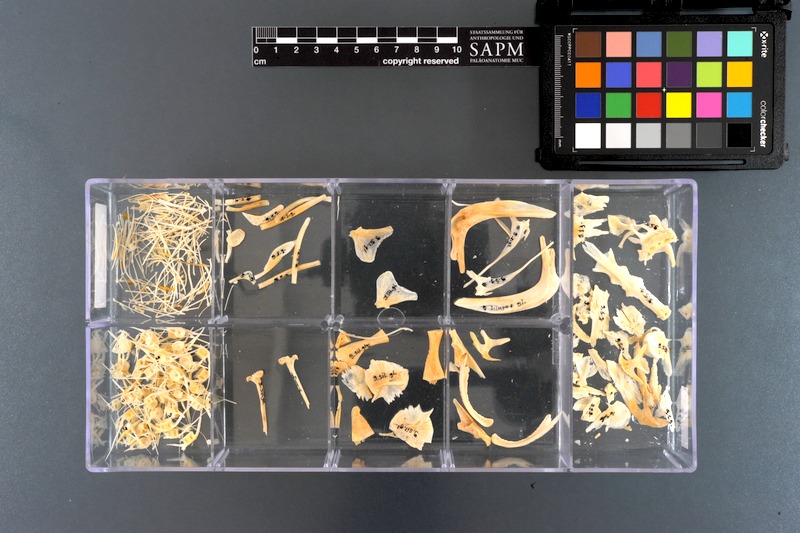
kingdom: Animalia
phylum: Chordata
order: Siluriformes
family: Siluridae
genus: Silurus
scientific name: Silurus glanis
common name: Wels
